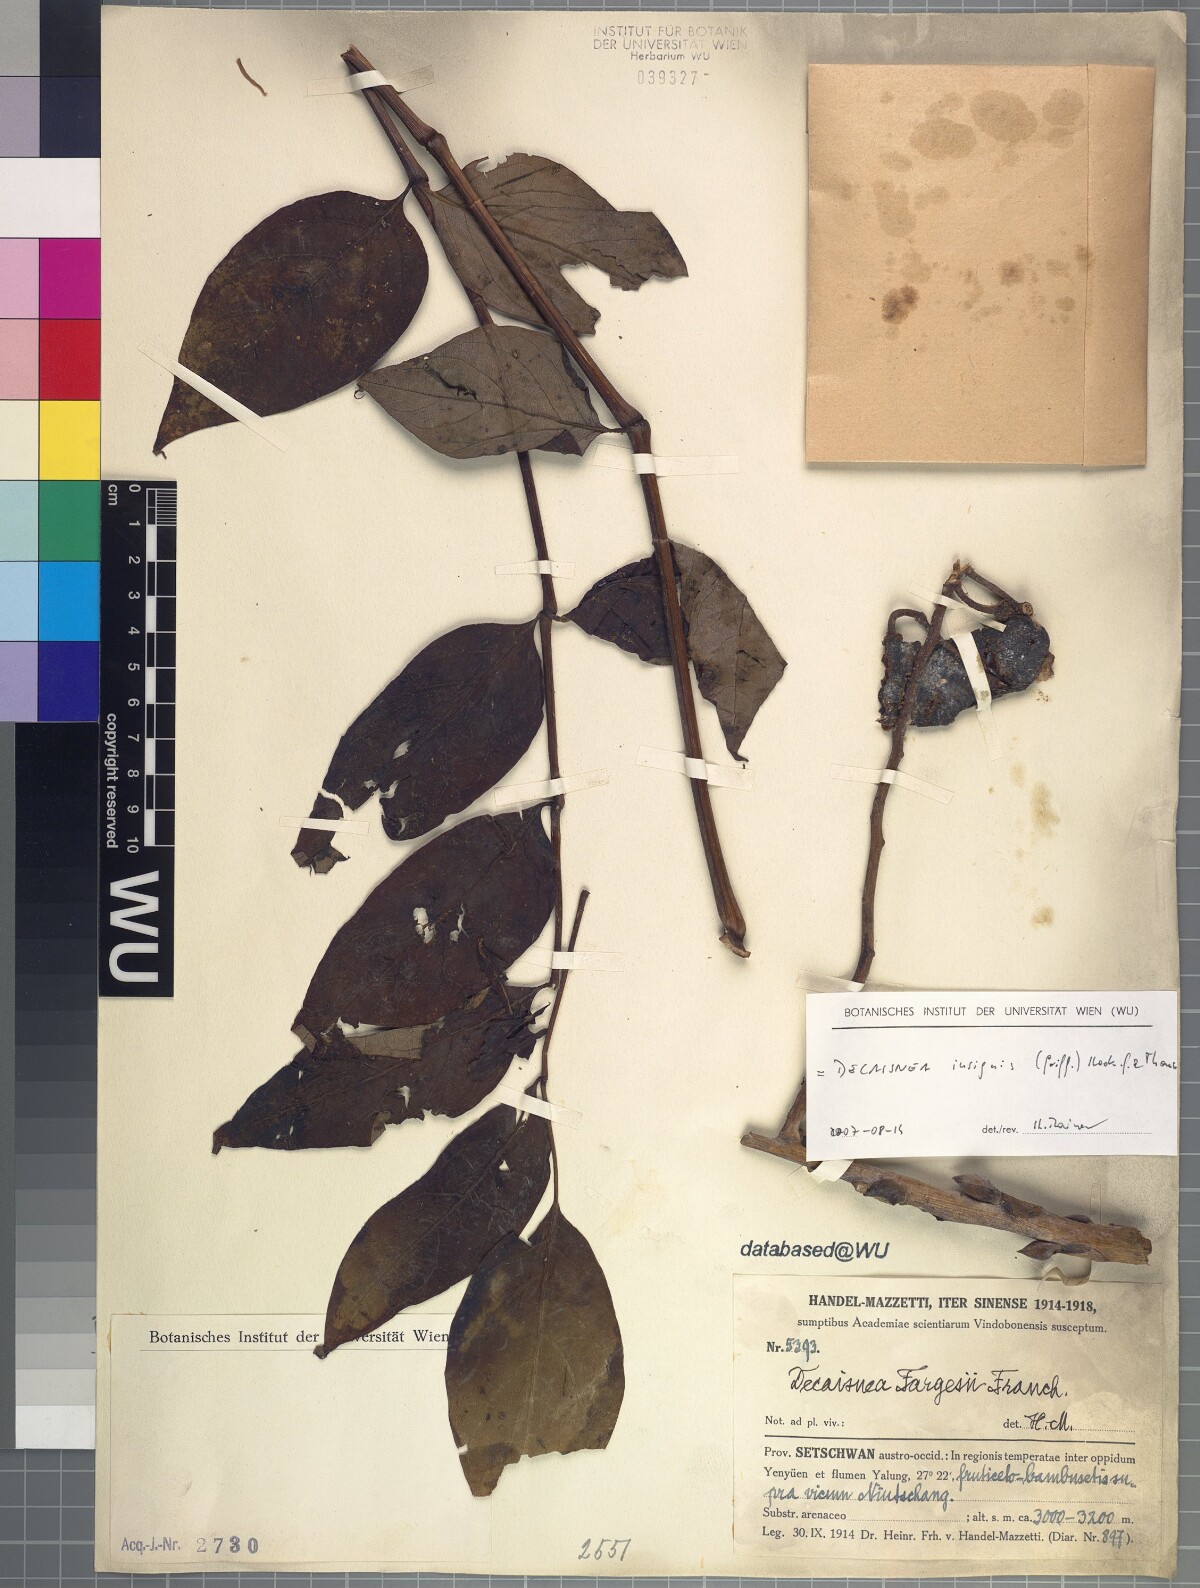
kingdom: Plantae
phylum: Tracheophyta
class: Magnoliopsida
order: Ranunculales
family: Lardizabalaceae
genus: Decaisnea
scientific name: Decaisnea insignis
